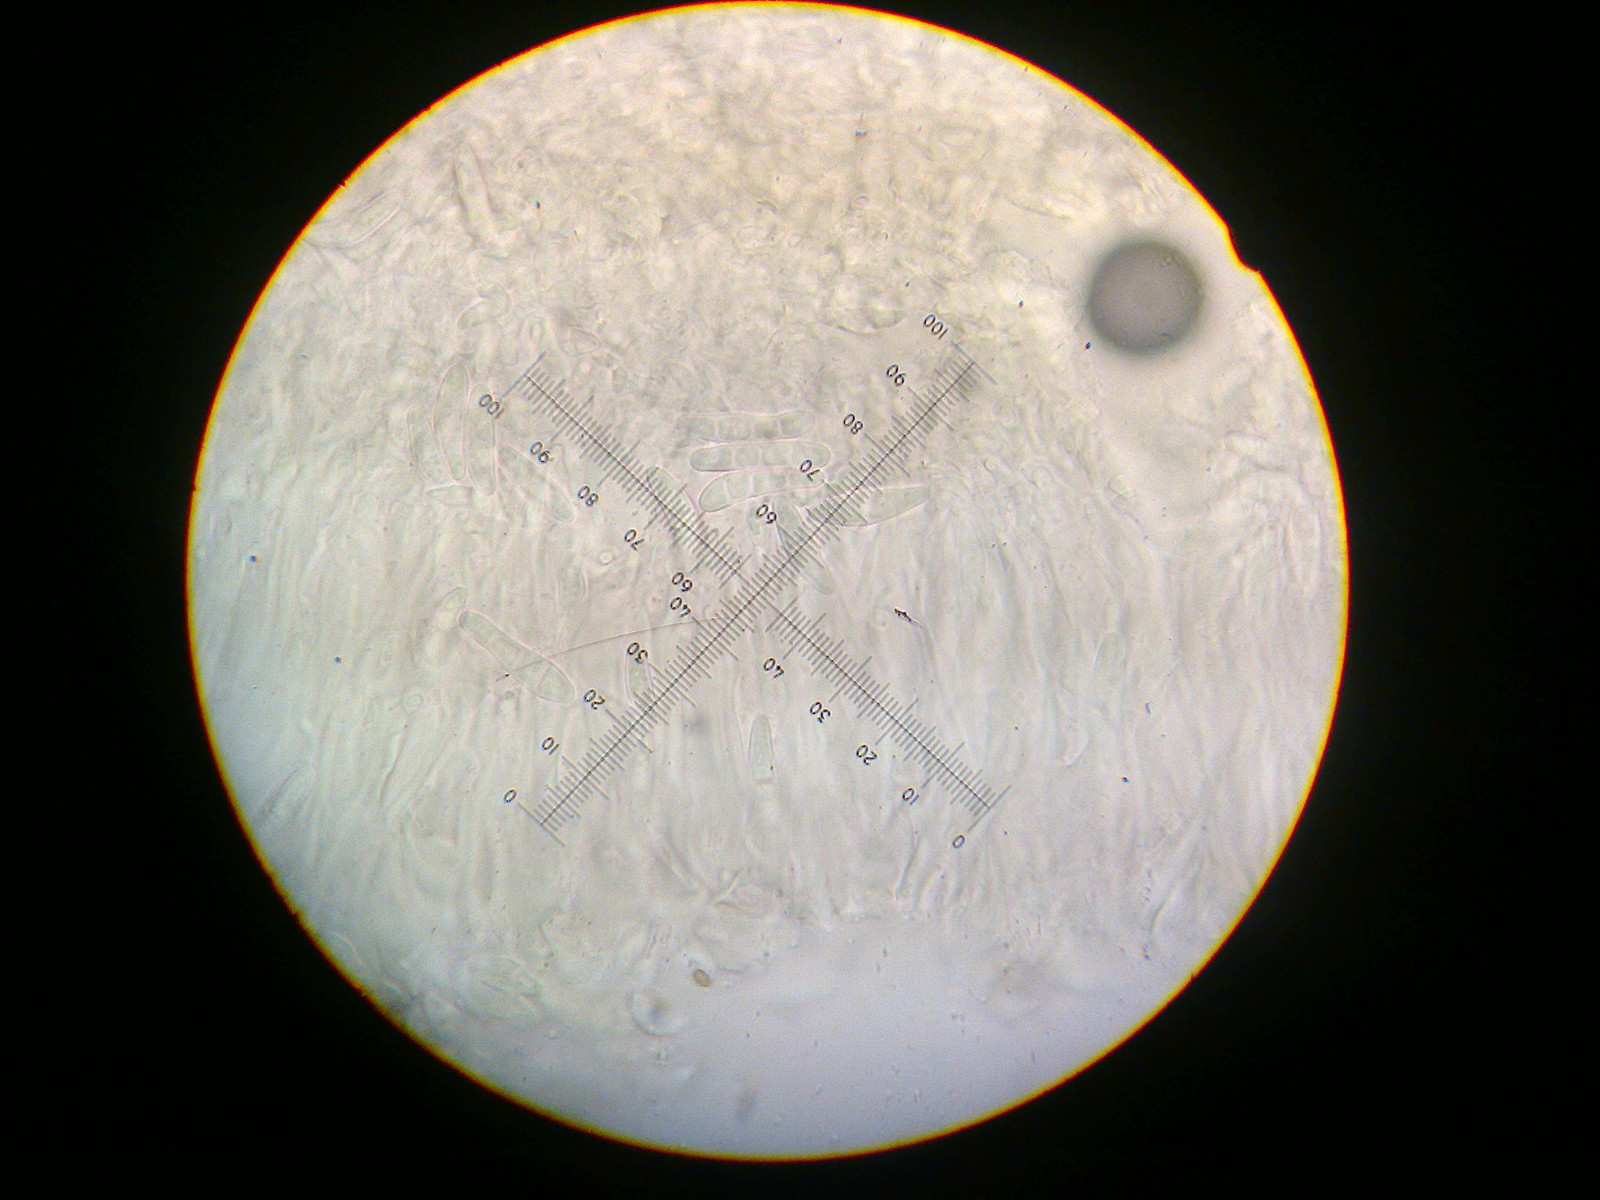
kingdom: Fungi
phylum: Ascomycota
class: Lecanoromycetes
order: Lecanorales
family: Ramalinaceae
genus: Lecania
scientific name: Lecania naegelii
